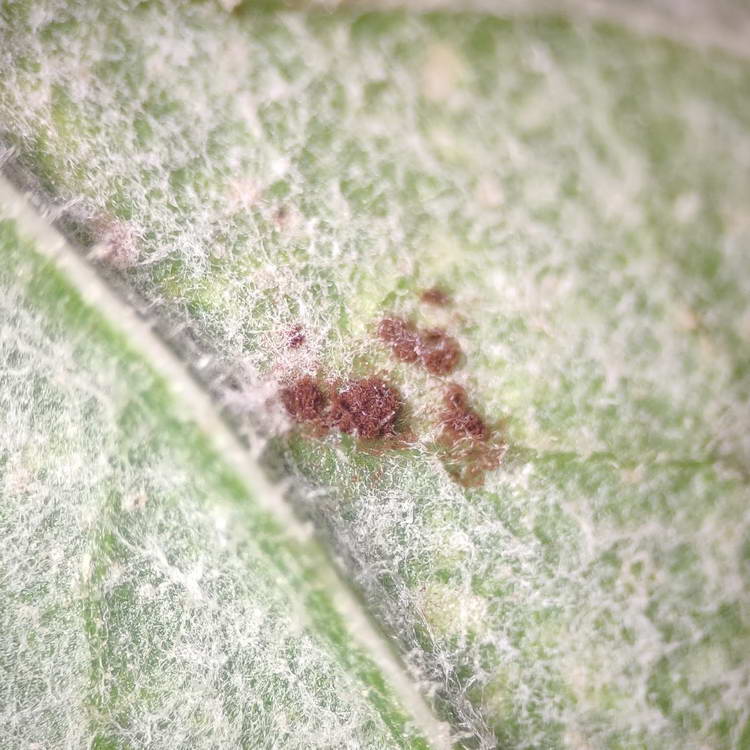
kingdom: Fungi
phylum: Basidiomycota
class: Pucciniomycetes
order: Pucciniales
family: Pucciniaceae
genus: Puccinia
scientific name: Puccinia calcitrapae
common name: Rust fungus
